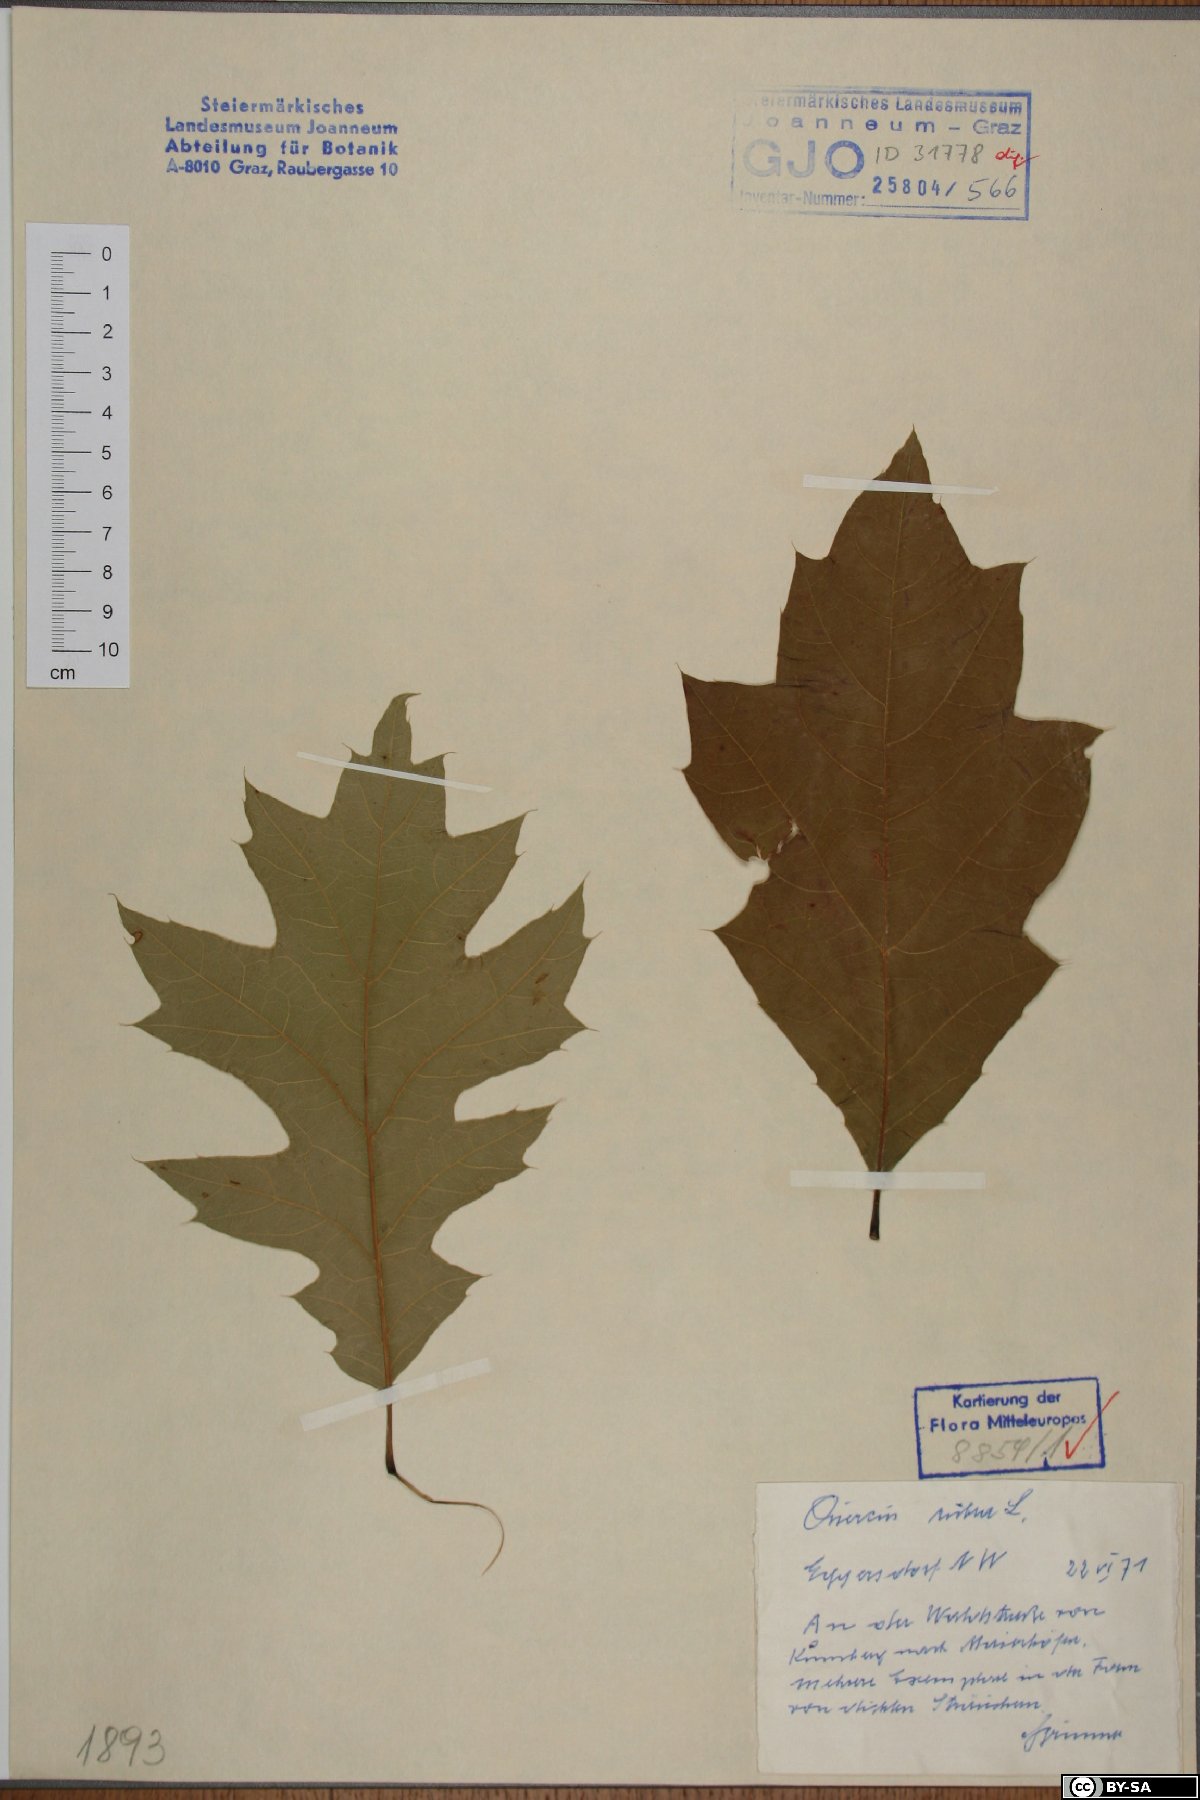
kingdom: Plantae
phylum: Tracheophyta
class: Magnoliopsida
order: Fagales
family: Fagaceae
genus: Quercus
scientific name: Quercus rubra
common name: Red oak
